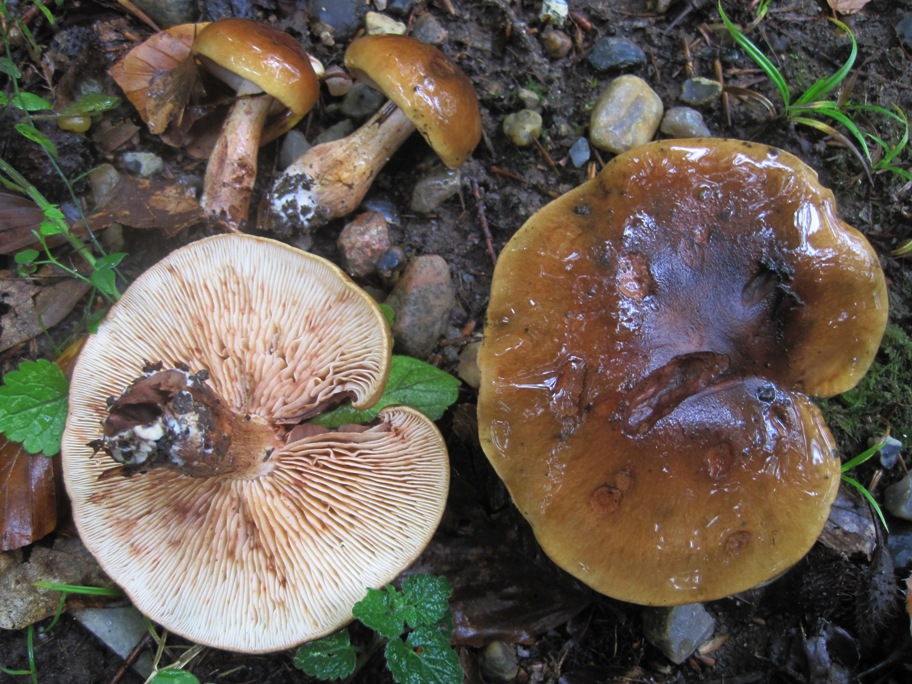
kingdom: Fungi
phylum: Basidiomycota
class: Agaricomycetes
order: Agaricales
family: Tricholomataceae
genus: Tricholoma
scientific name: Tricholoma ustale
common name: sveden ridderhat
